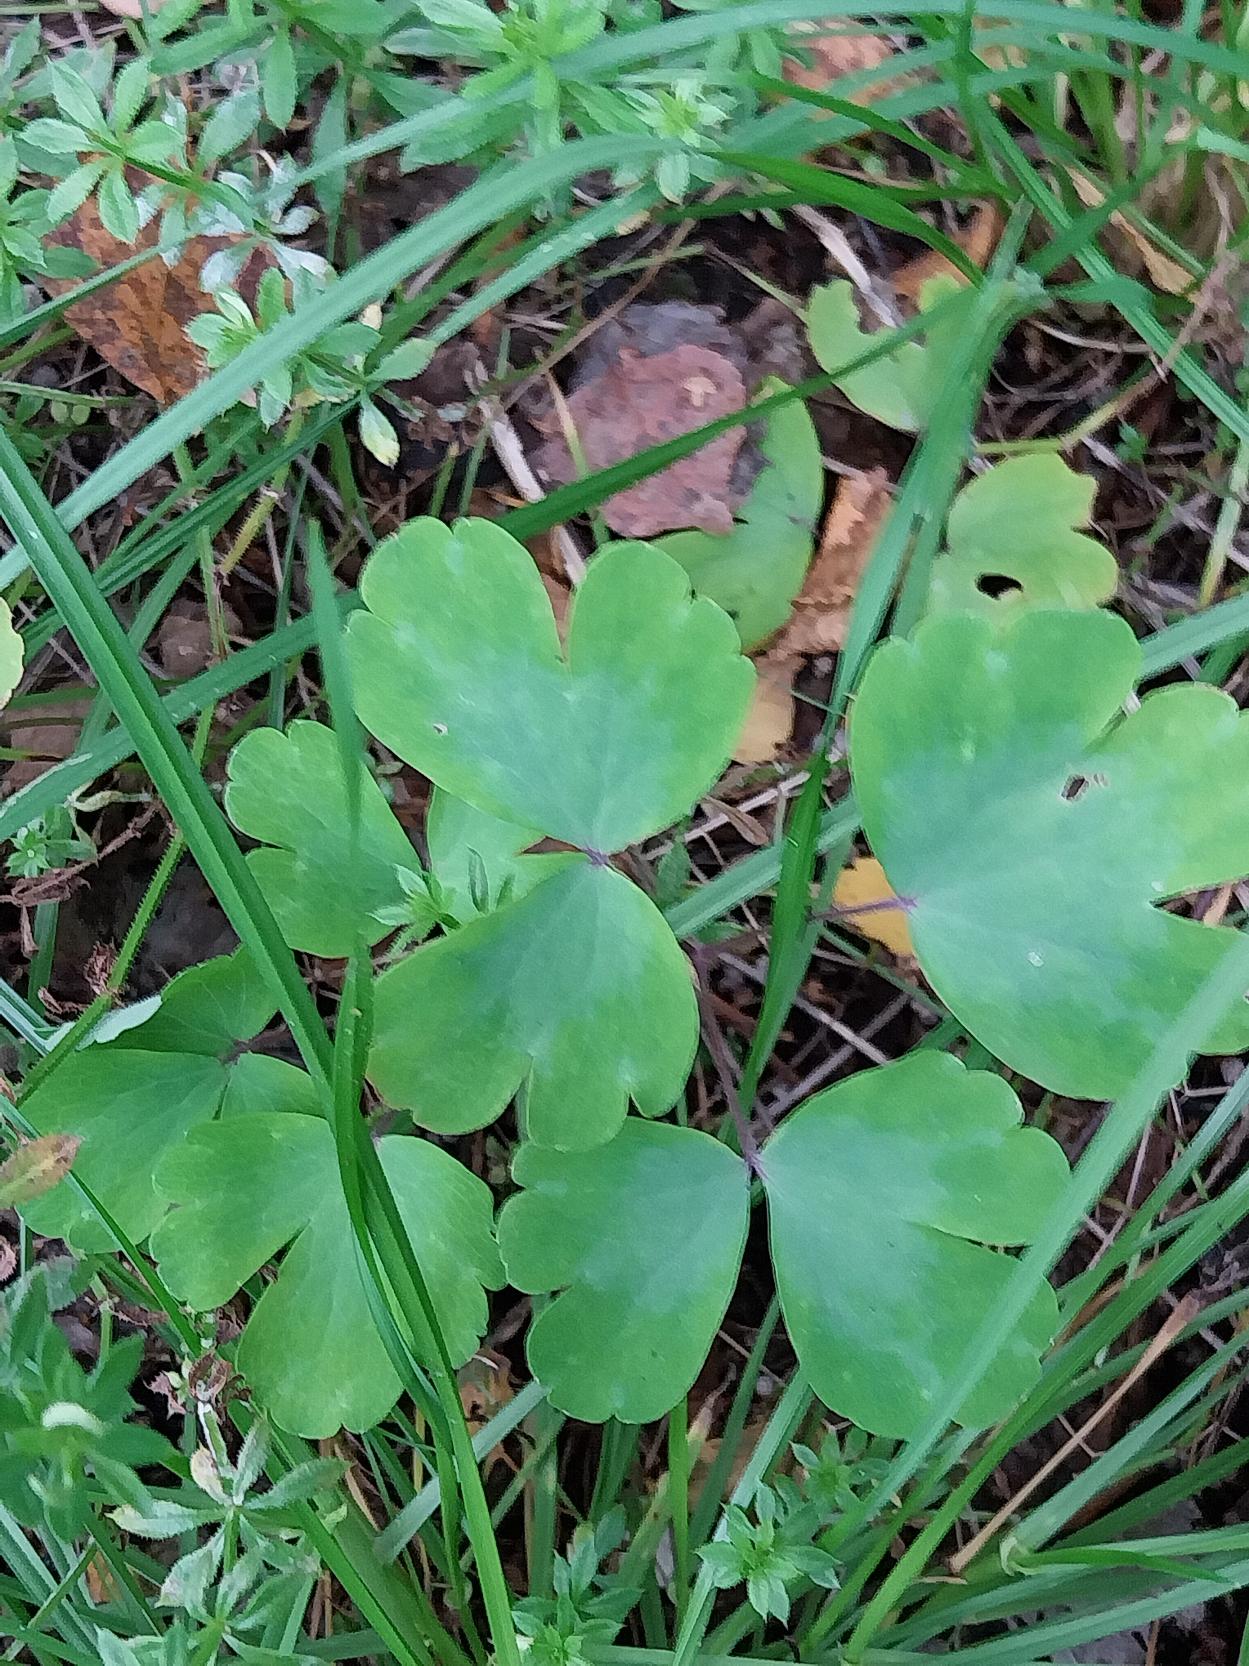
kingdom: Plantae
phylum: Tracheophyta
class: Magnoliopsida
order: Ranunculales
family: Ranunculaceae
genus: Aquilegia
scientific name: Aquilegia vulgaris
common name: Akeleje
